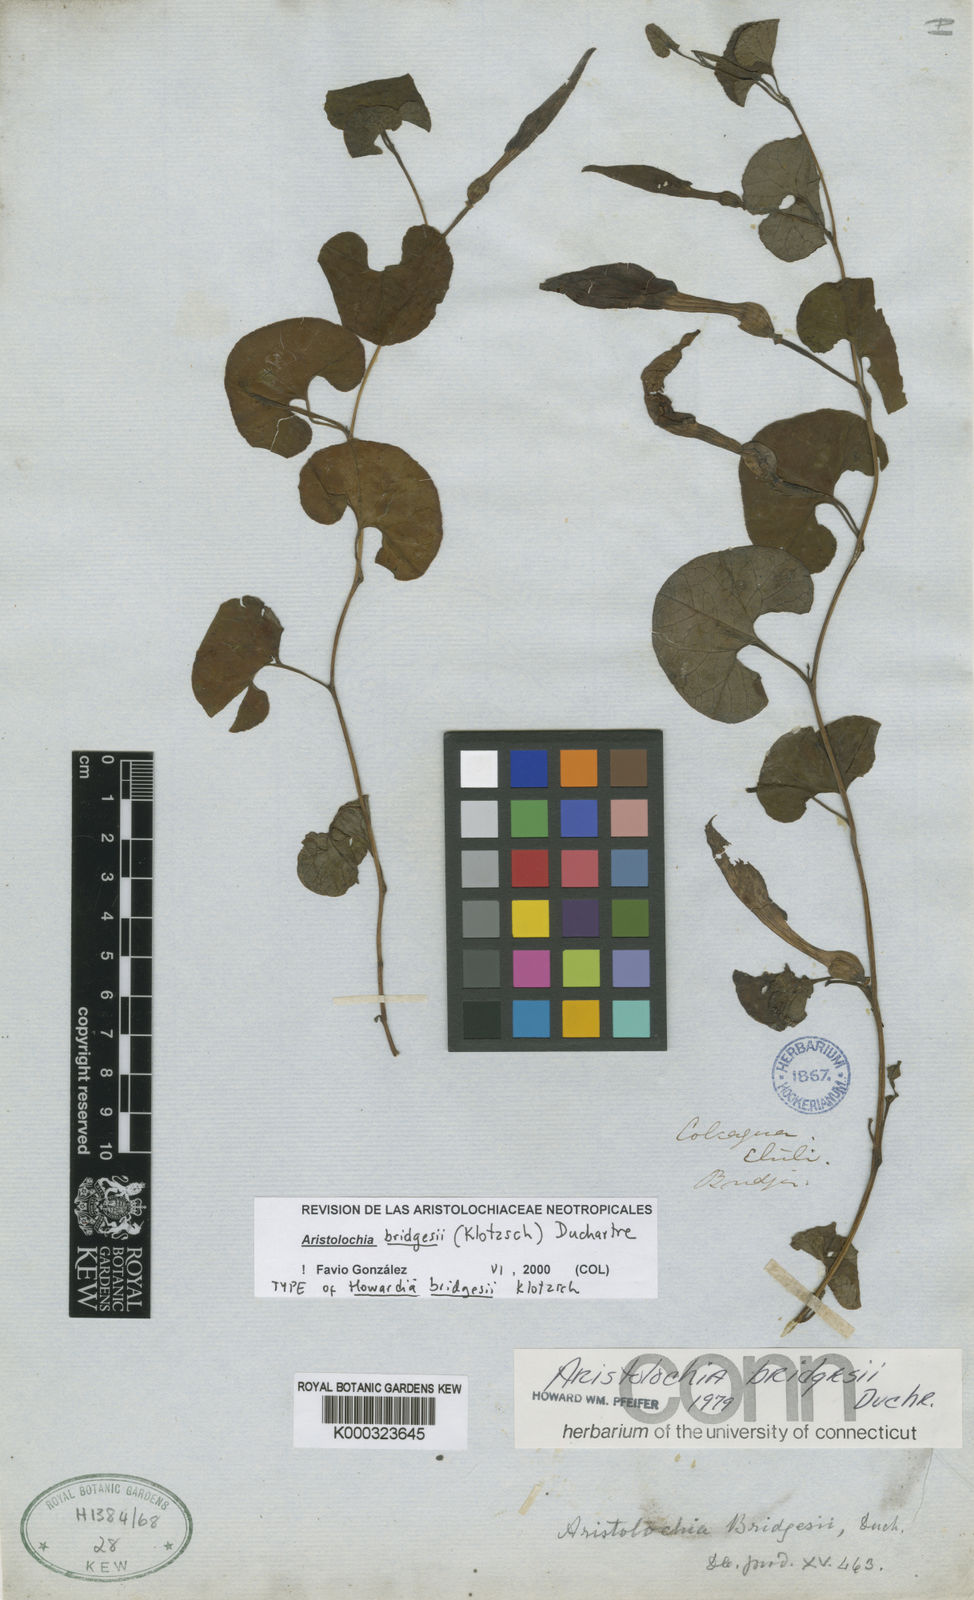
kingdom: Plantae
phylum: Tracheophyta
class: Magnoliopsida
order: Piperales
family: Aristolochiaceae
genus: Aristolochia
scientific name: Aristolochia bridgesii
